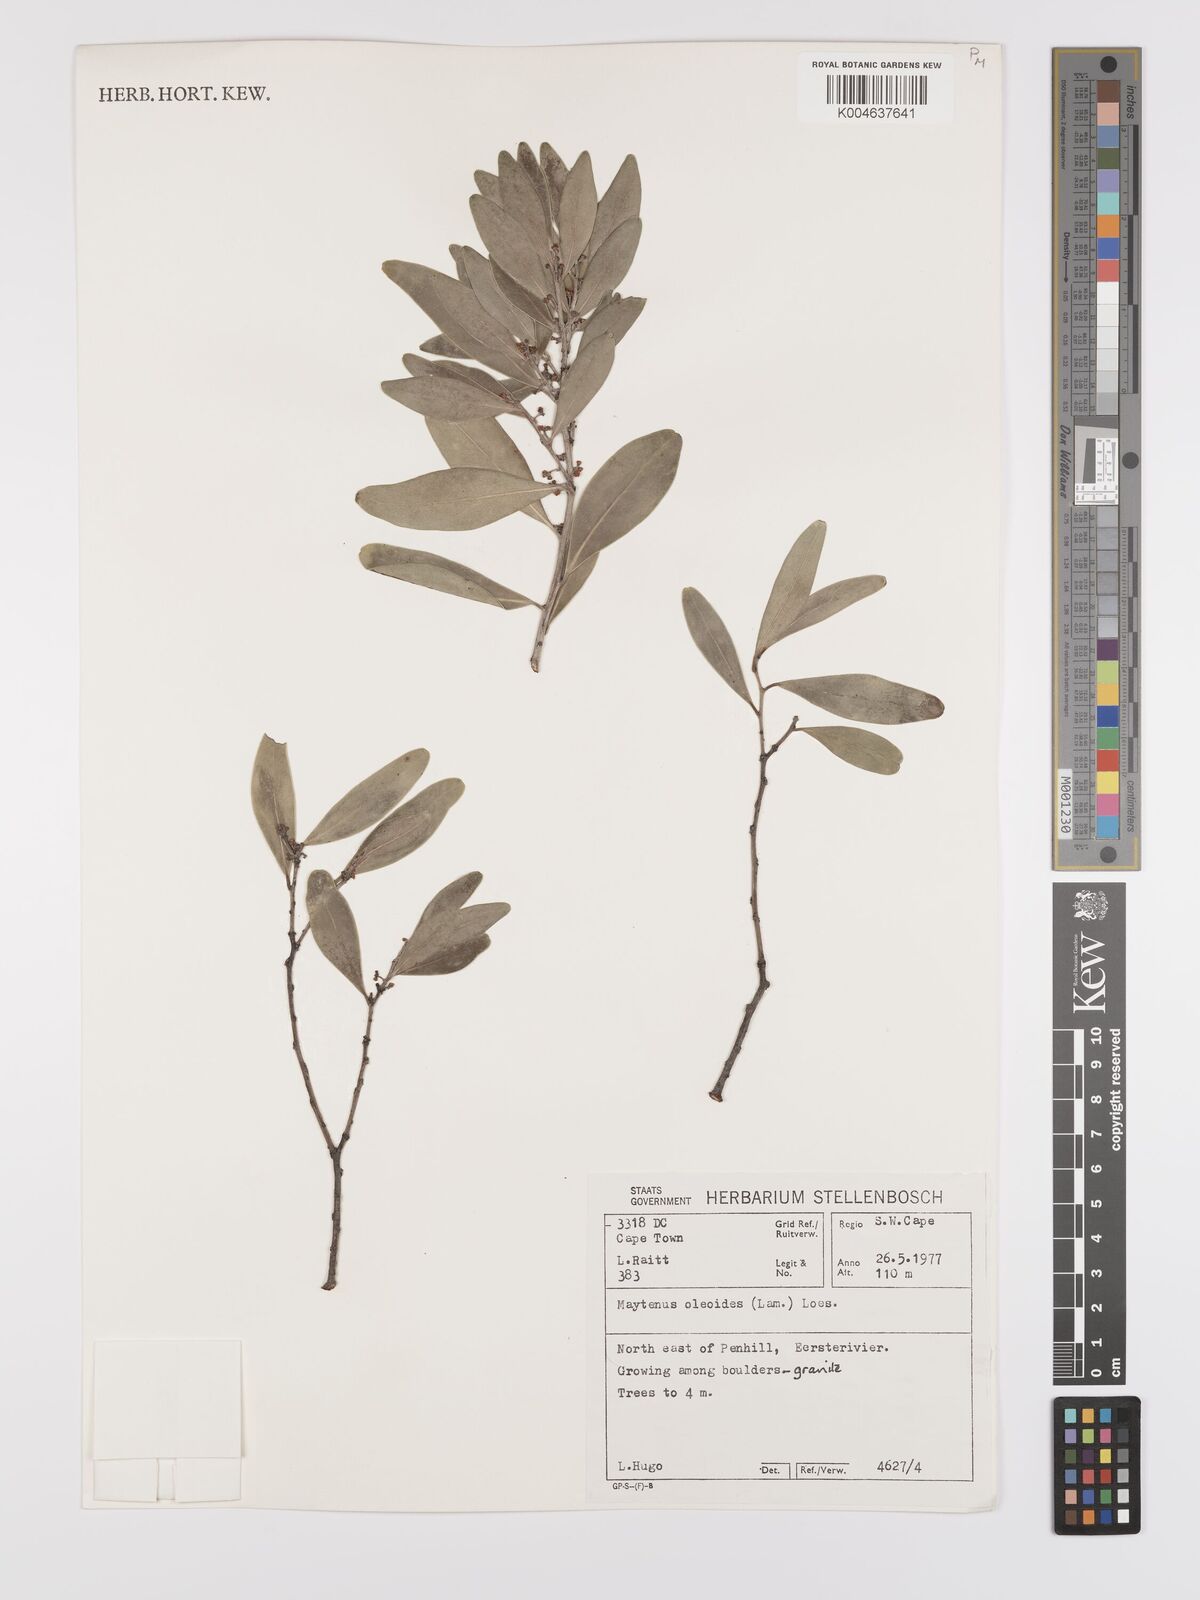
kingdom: Plantae
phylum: Tracheophyta
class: Magnoliopsida
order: Celastrales
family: Celastraceae
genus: Gymnosporia
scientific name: Gymnosporia laurina
